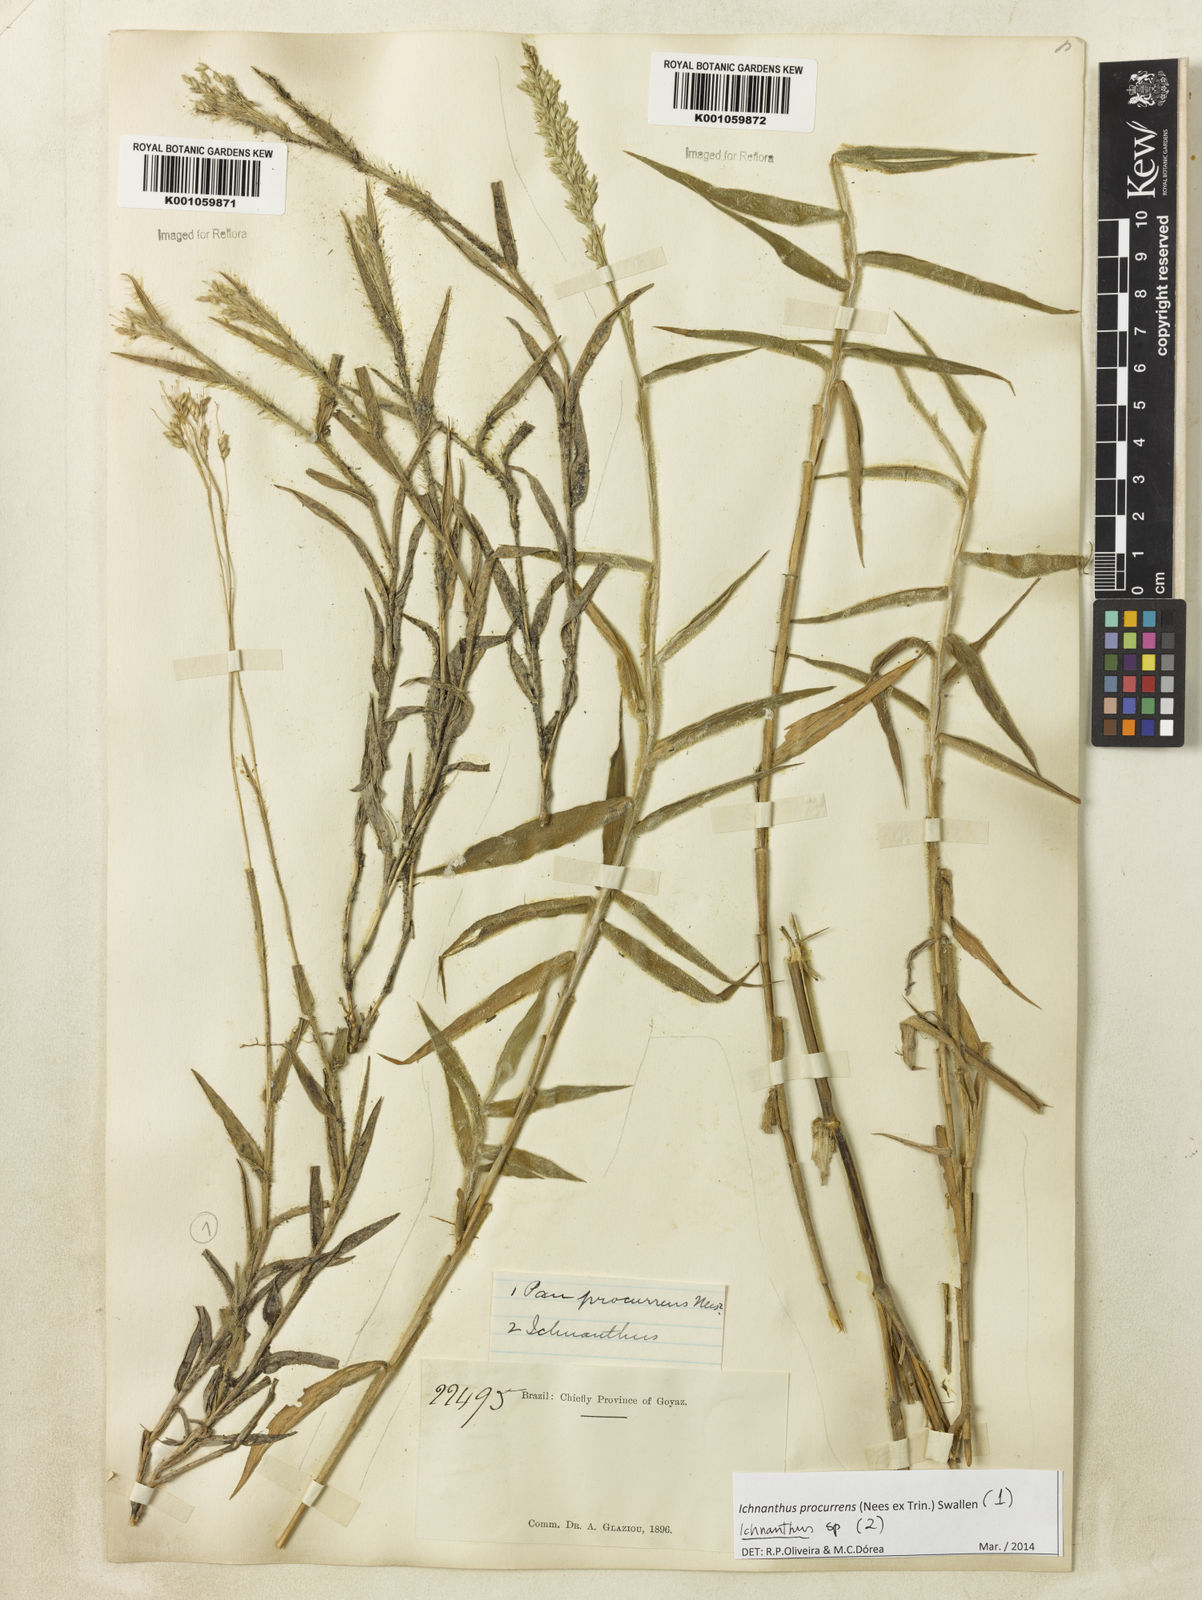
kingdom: Plantae
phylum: Tracheophyta
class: Liliopsida
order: Poales
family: Poaceae
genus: Oedochloa
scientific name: Oedochloa procurrens
